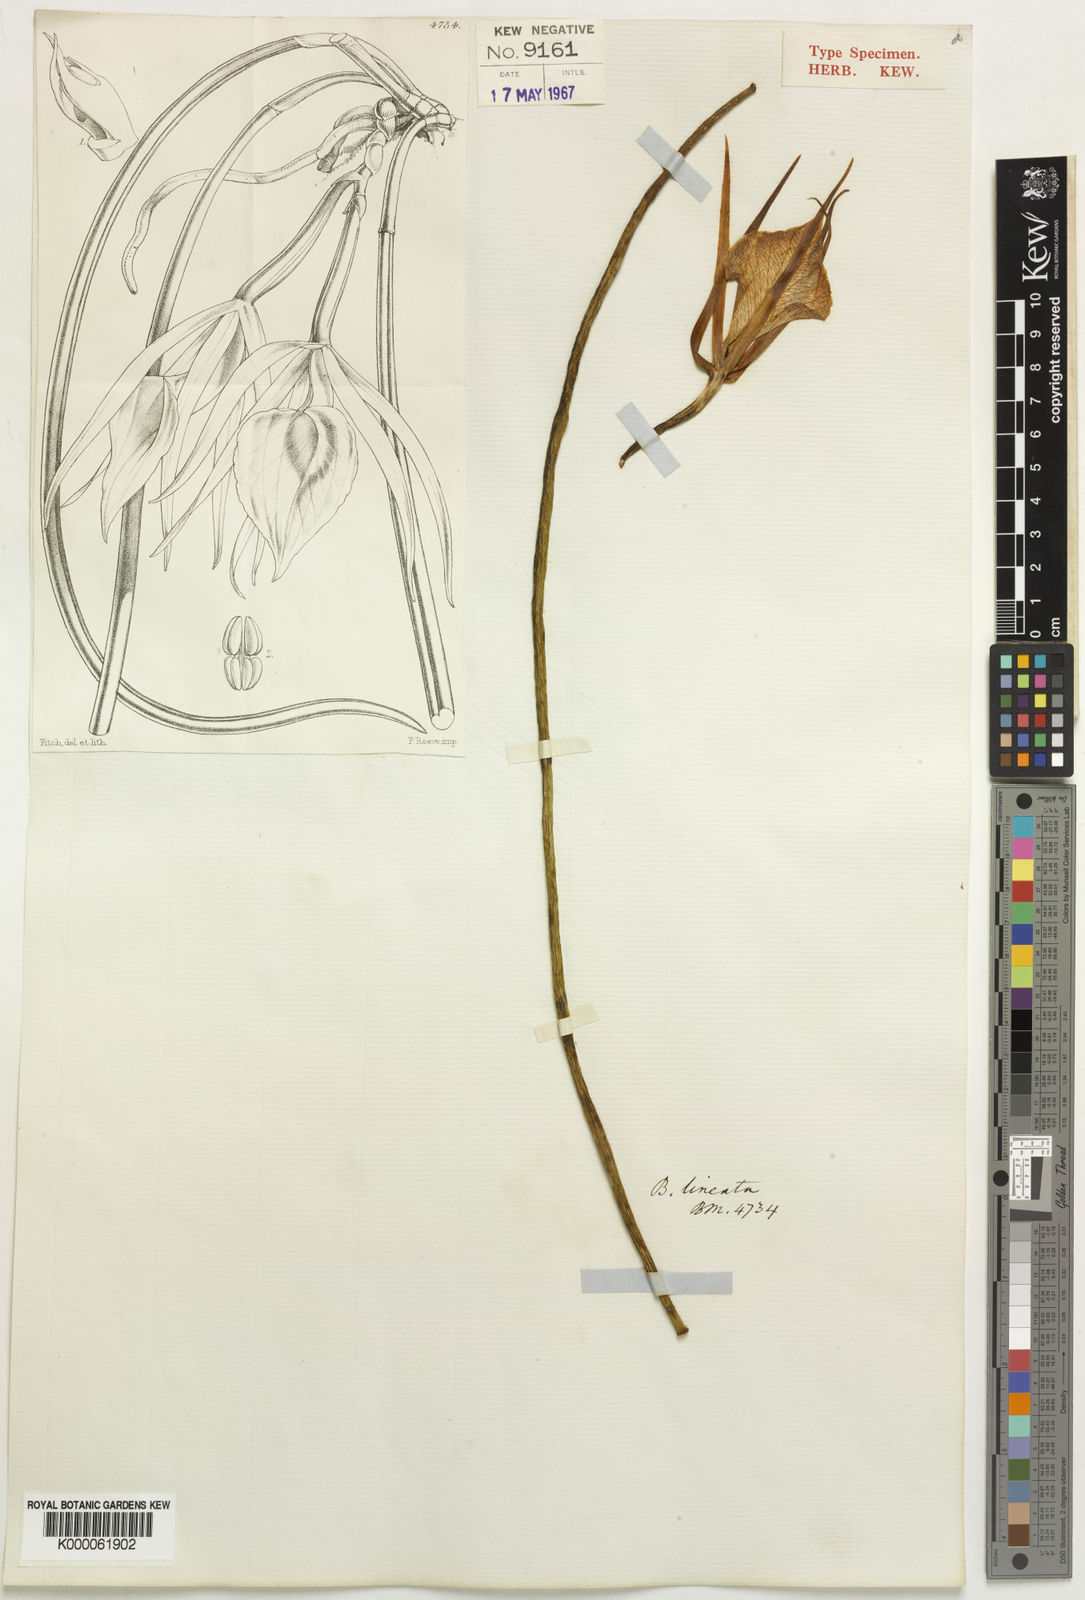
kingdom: Plantae
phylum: Tracheophyta
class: Liliopsida
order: Asparagales
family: Orchidaceae
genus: Brassavola
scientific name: Brassavola acaulis
